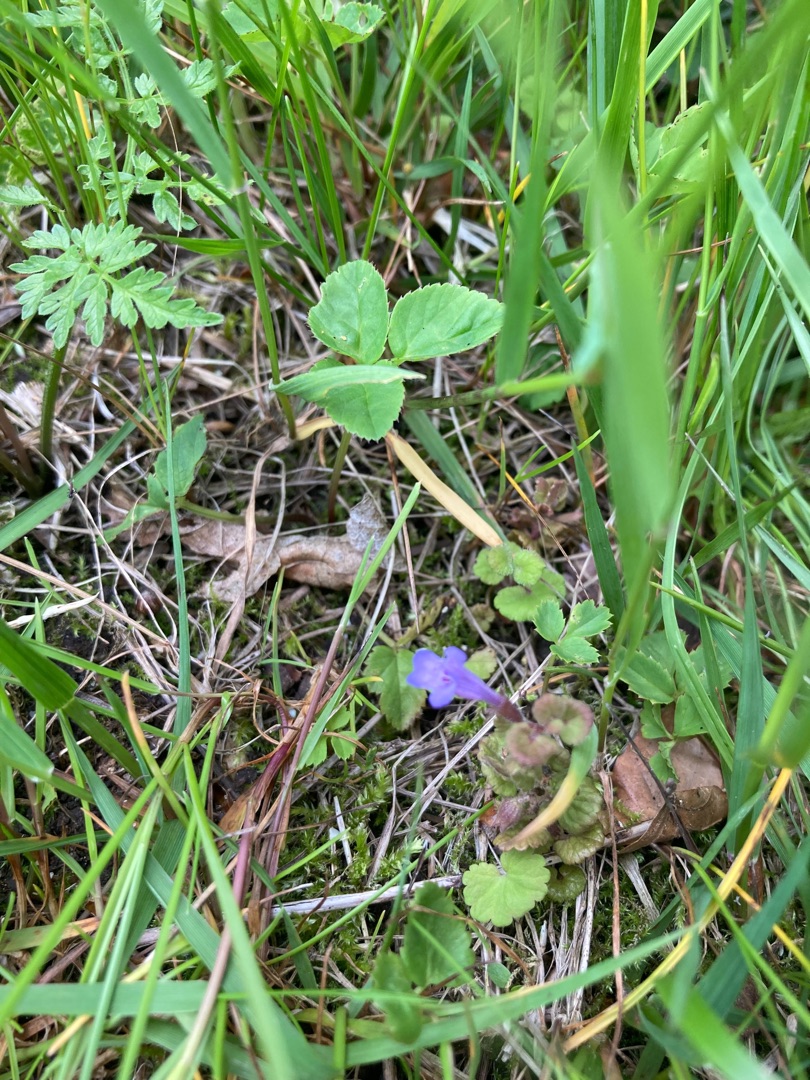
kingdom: Plantae
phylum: Tracheophyta
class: Magnoliopsida
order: Lamiales
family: Lamiaceae
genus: Glechoma
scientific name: Glechoma hederacea
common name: Korsknap
